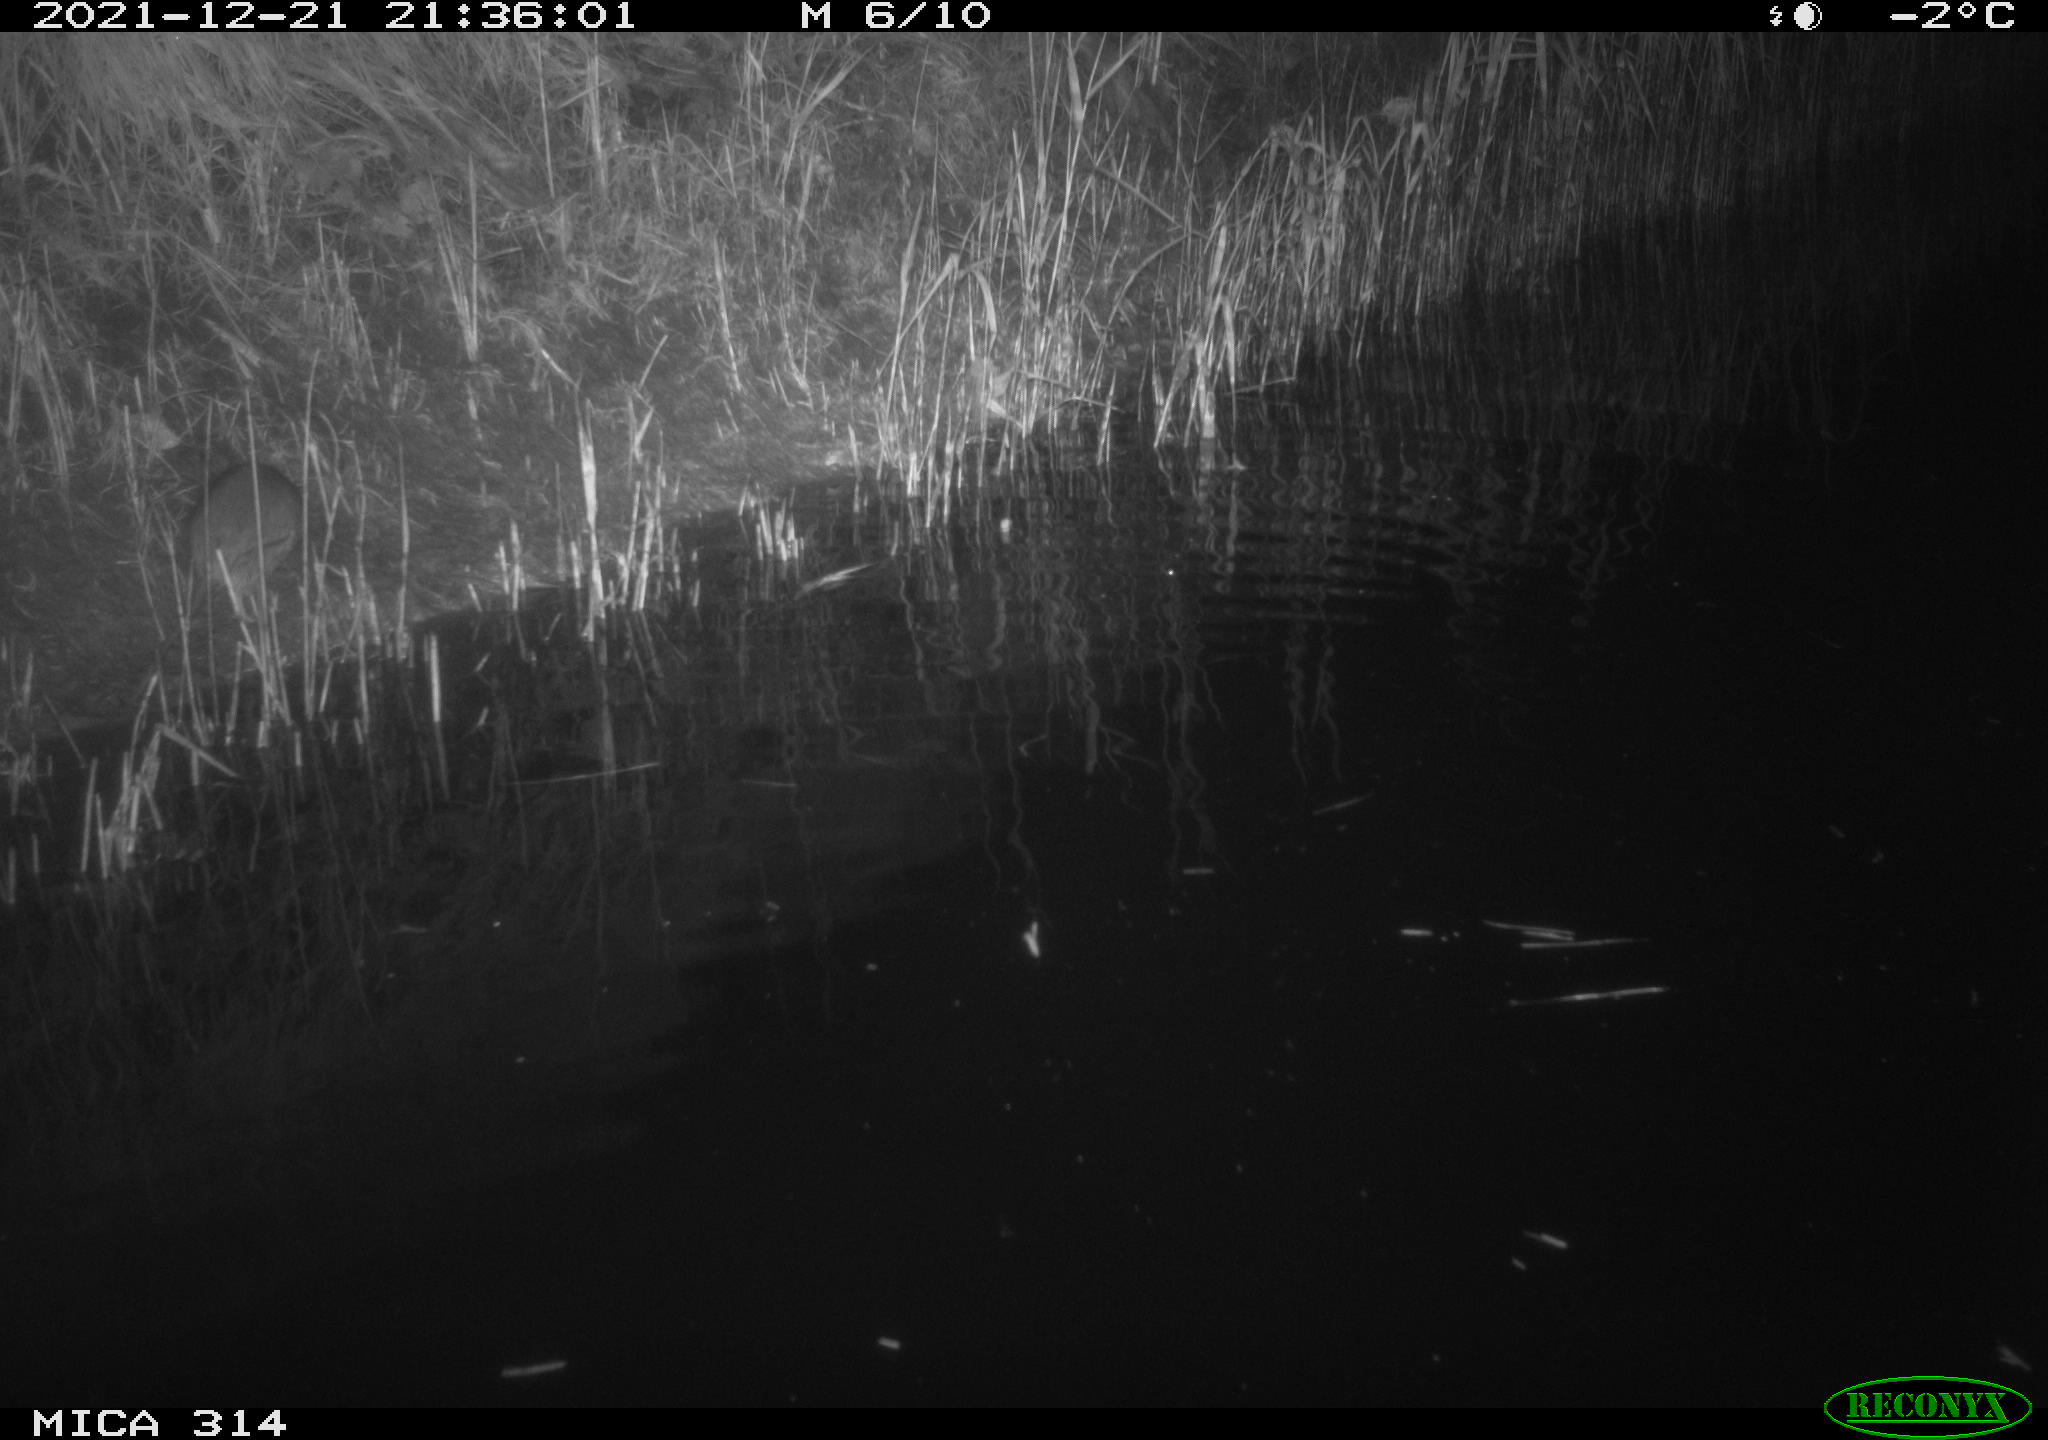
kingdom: Animalia
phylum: Chordata
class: Mammalia
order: Rodentia
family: Muridae
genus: Rattus
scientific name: Rattus norvegicus
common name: Brown rat
